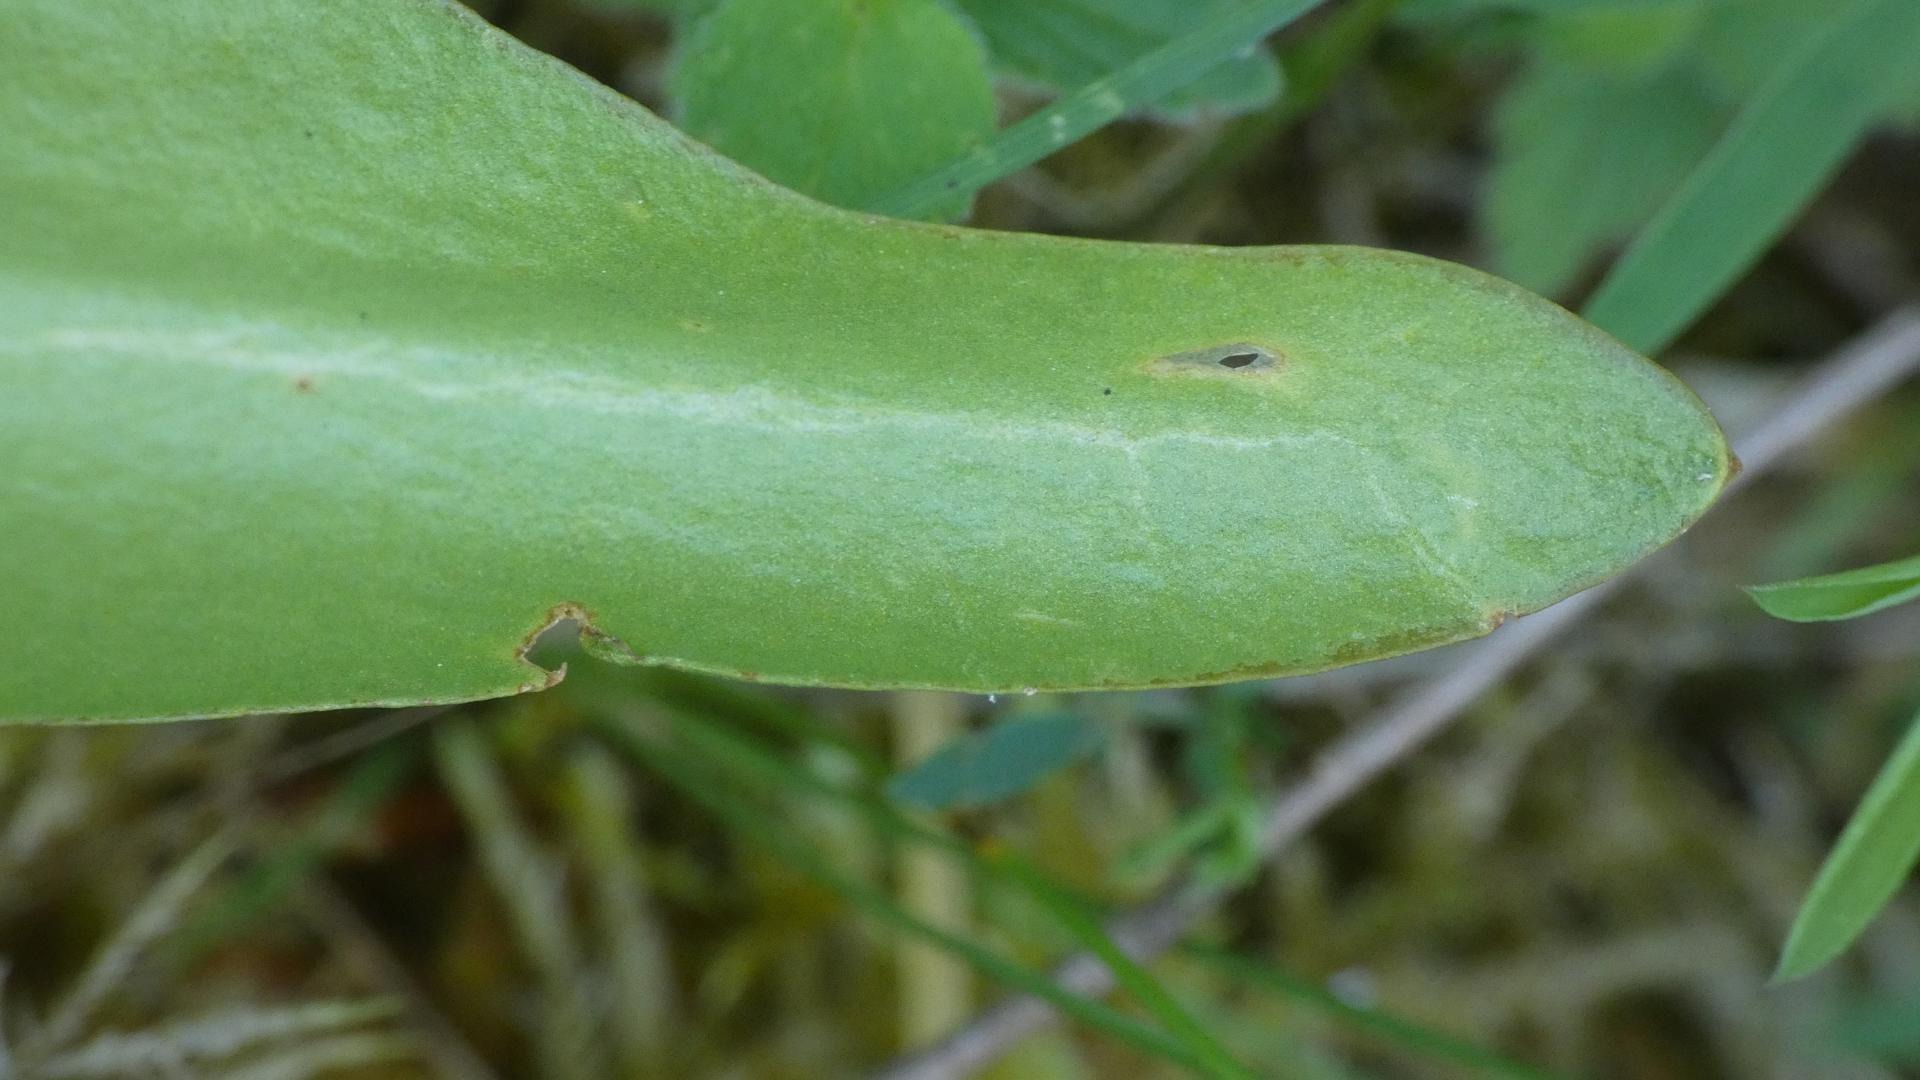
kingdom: Plantae
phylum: Tracheophyta
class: Polypodiopsida
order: Ophioglossales
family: Ophioglossaceae
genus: Ophioglossum
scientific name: Ophioglossum vulgatum
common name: Slangetunge
